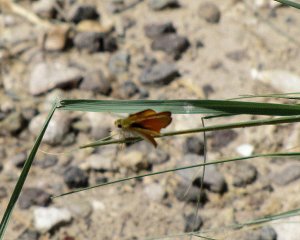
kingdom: Animalia
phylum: Arthropoda
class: Insecta
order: Lepidoptera
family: Hesperiidae
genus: Hylephila
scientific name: Hylephila phyleus
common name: Fiery Skipper
